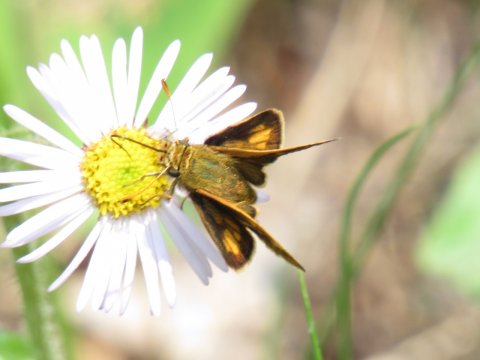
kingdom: Animalia
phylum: Arthropoda
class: Insecta
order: Lepidoptera
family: Hesperiidae
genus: Polites
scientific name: Polites coras
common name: Peck's Skipper
